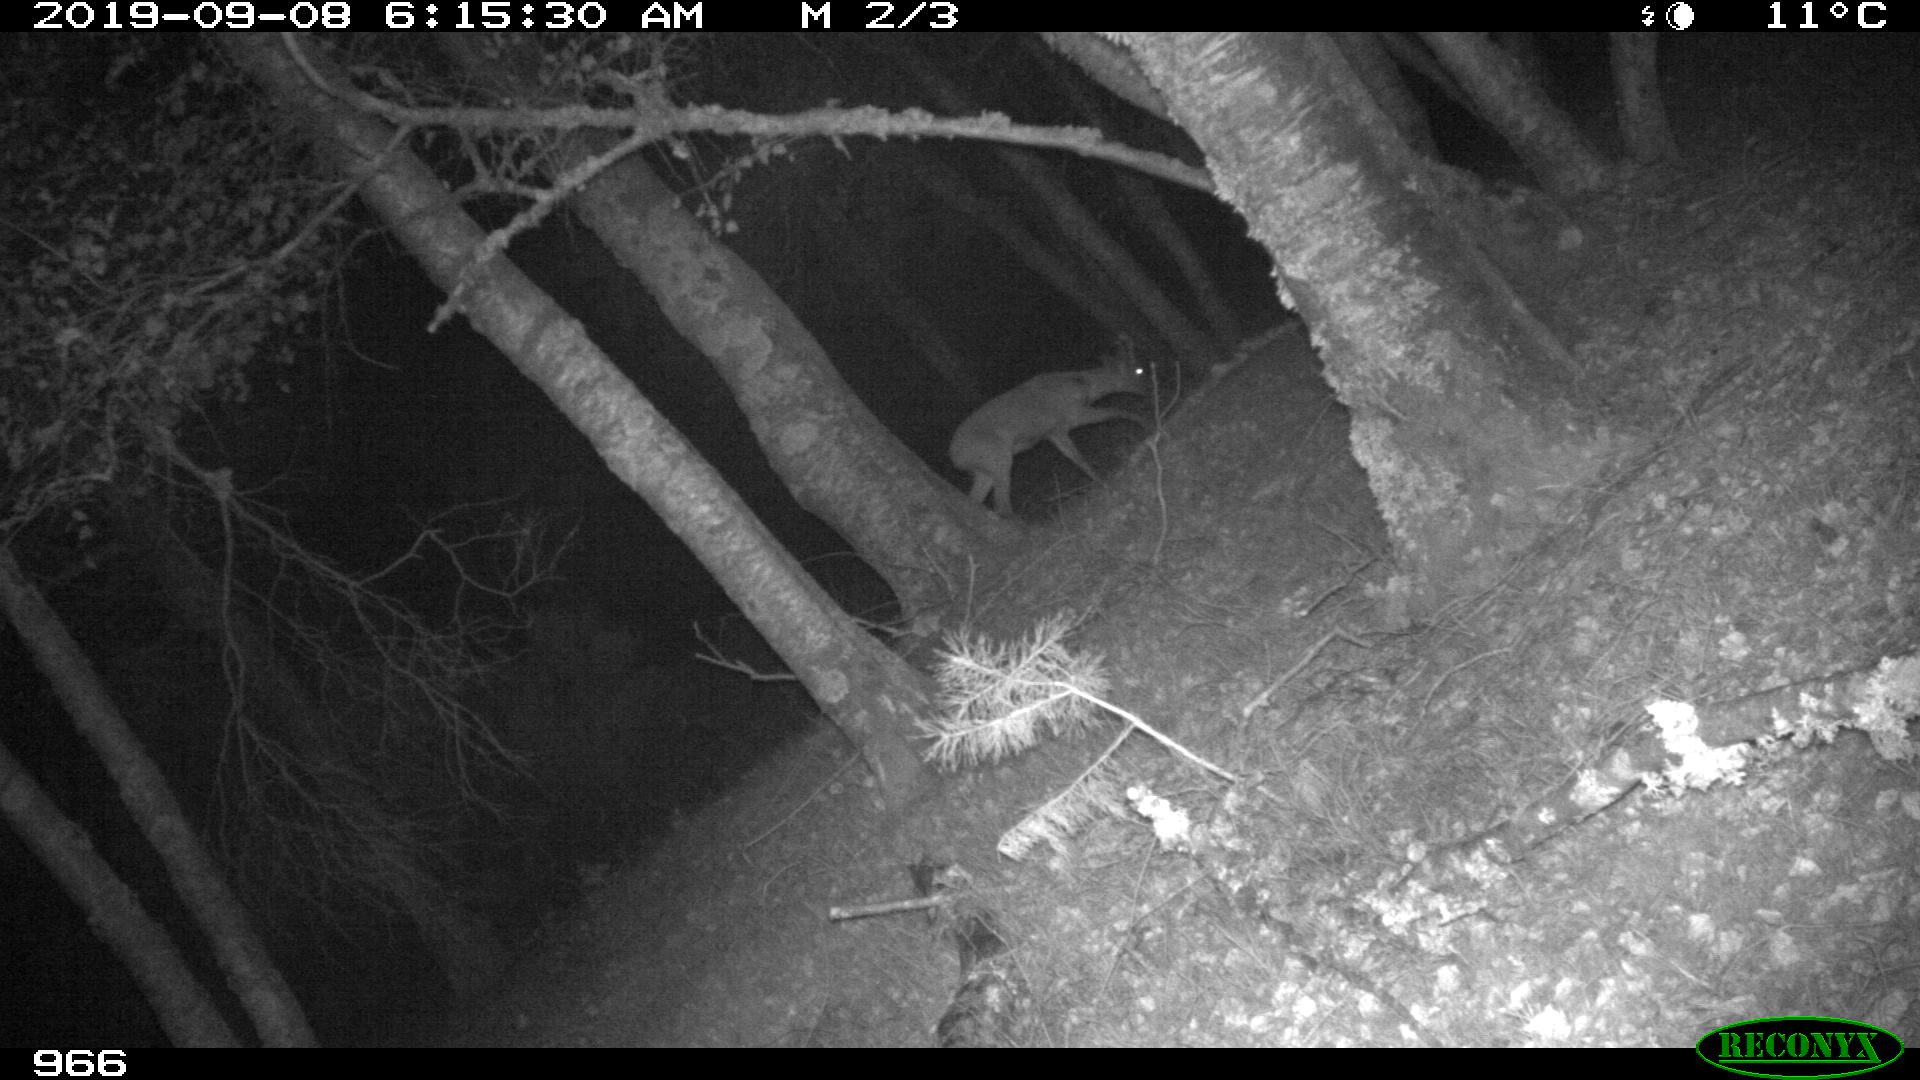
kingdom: Animalia
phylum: Chordata
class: Mammalia
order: Artiodactyla
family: Cervidae
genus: Capreolus
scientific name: Capreolus capreolus
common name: Western roe deer
